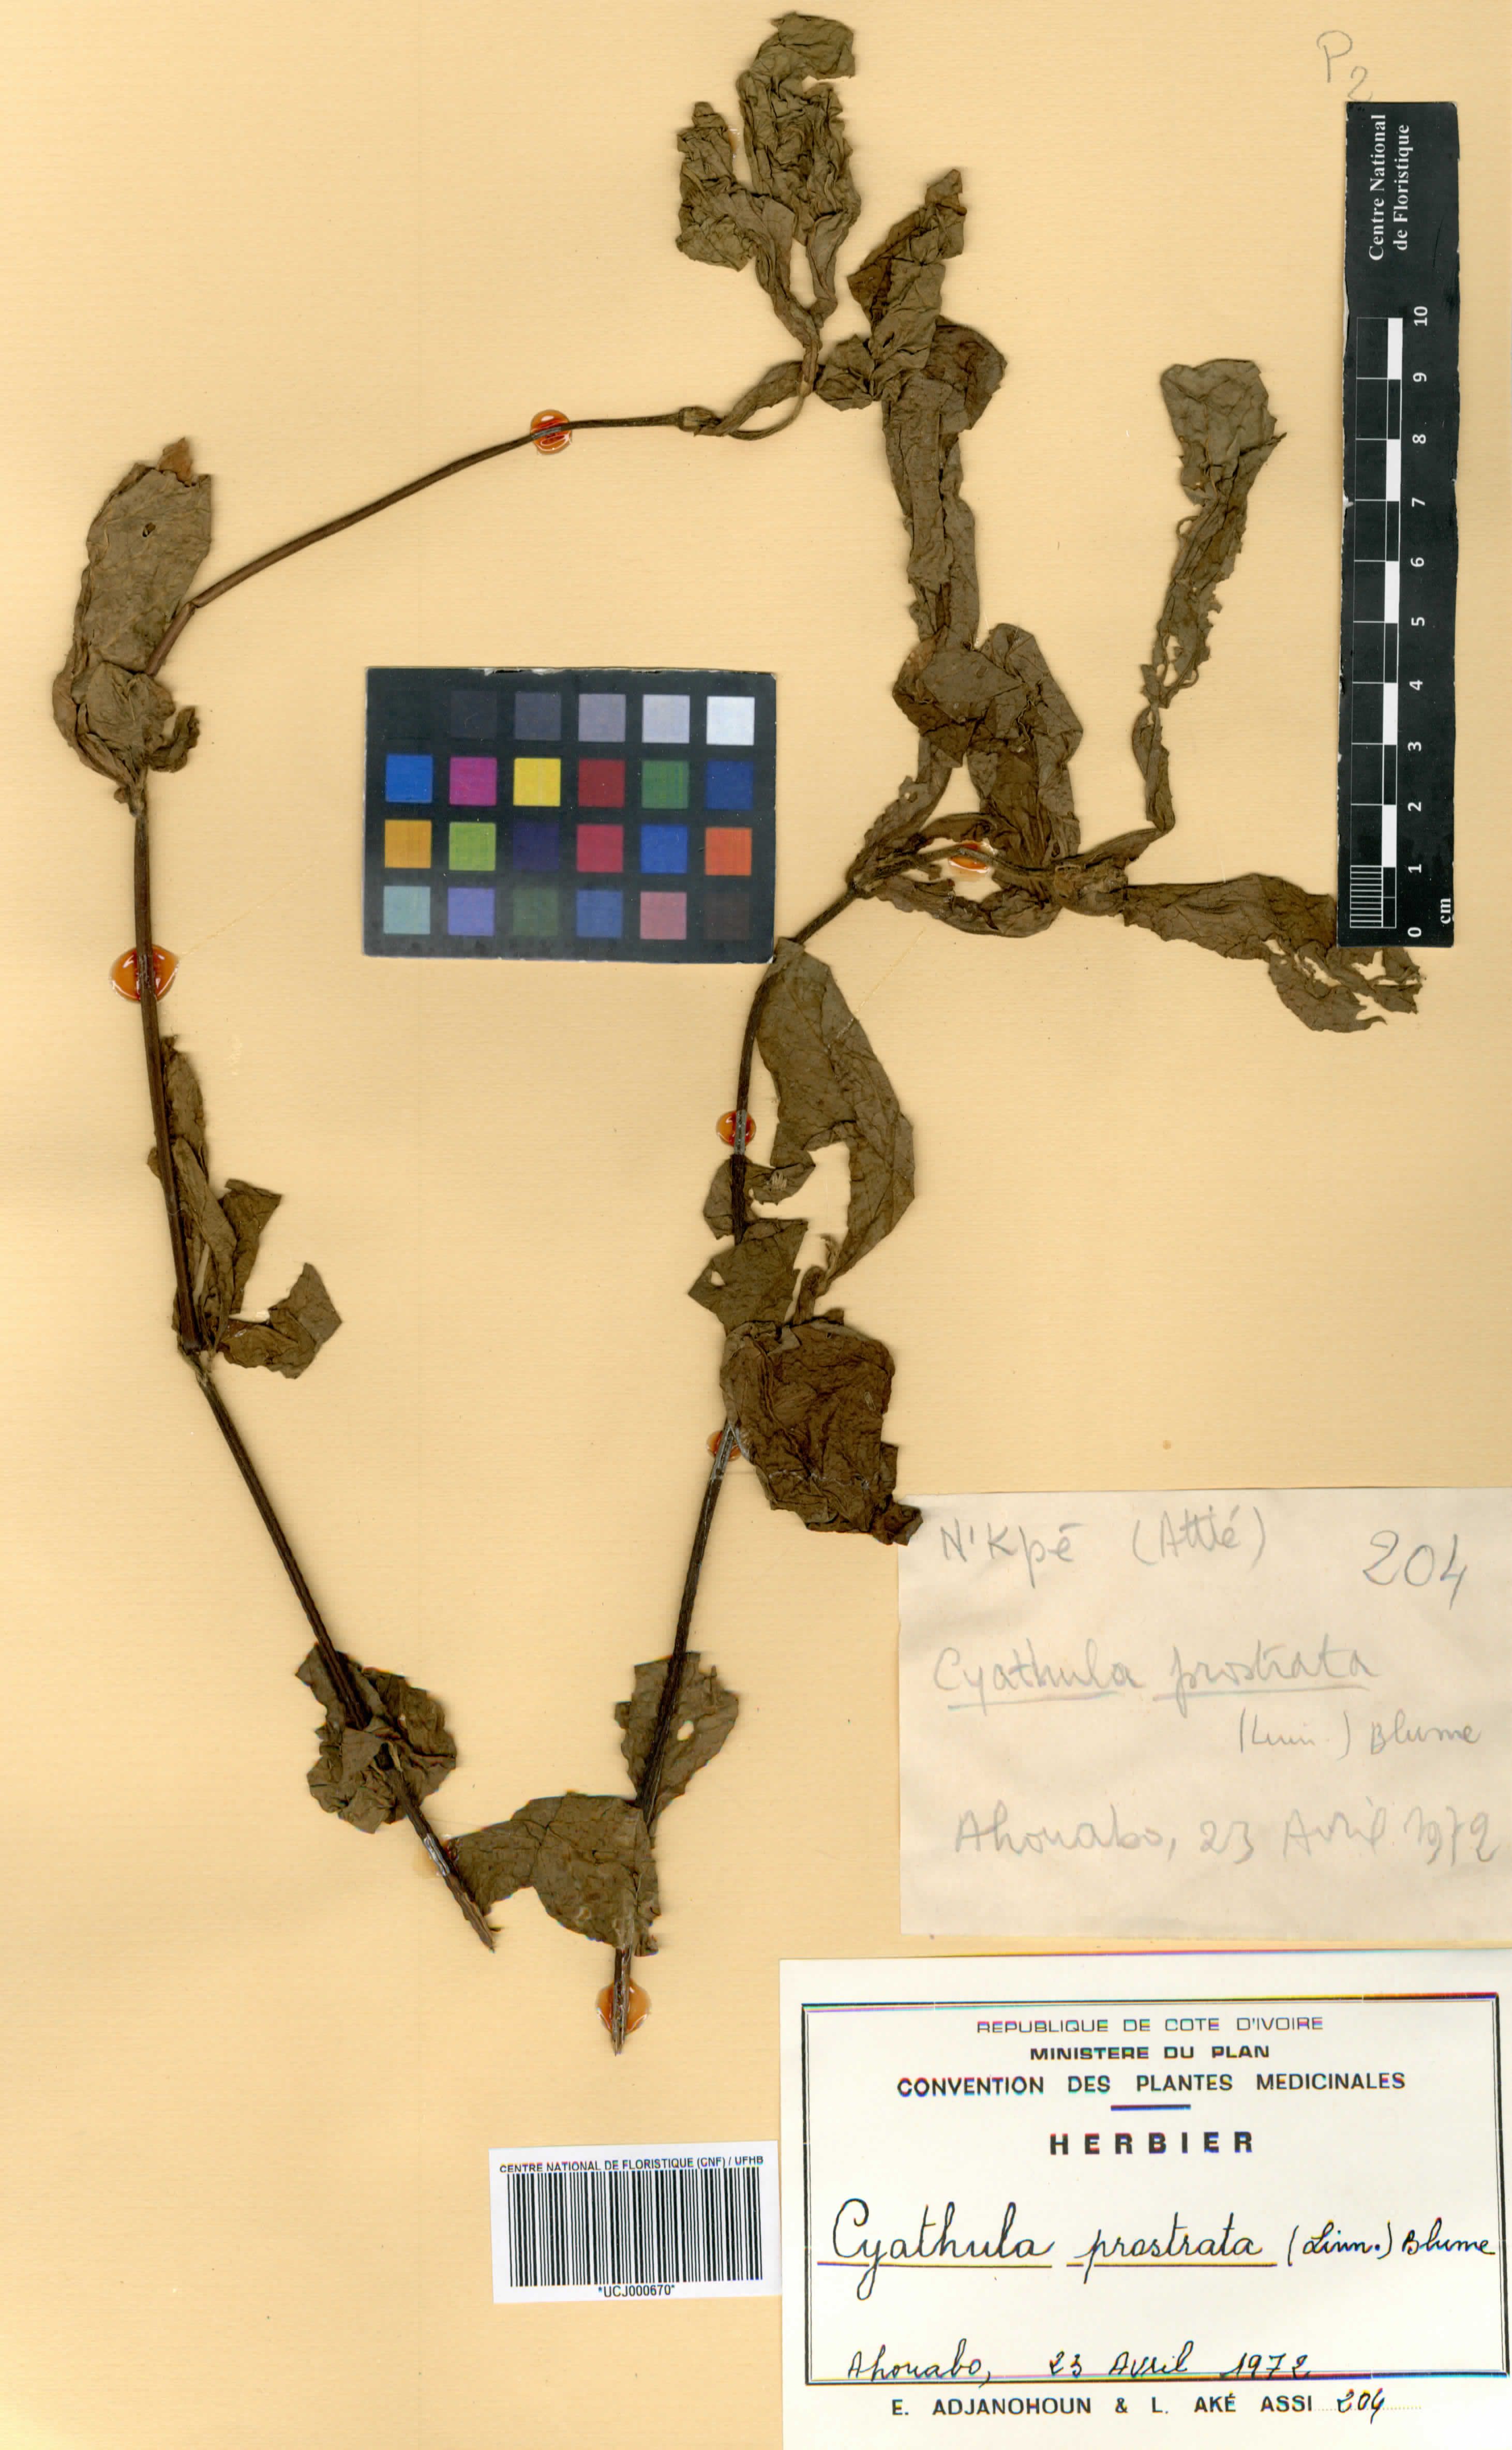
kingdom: Plantae
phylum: Tracheophyta
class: Magnoliopsida
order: Caryophyllales
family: Amaranthaceae
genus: Cyathula
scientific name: Cyathula prostrata
